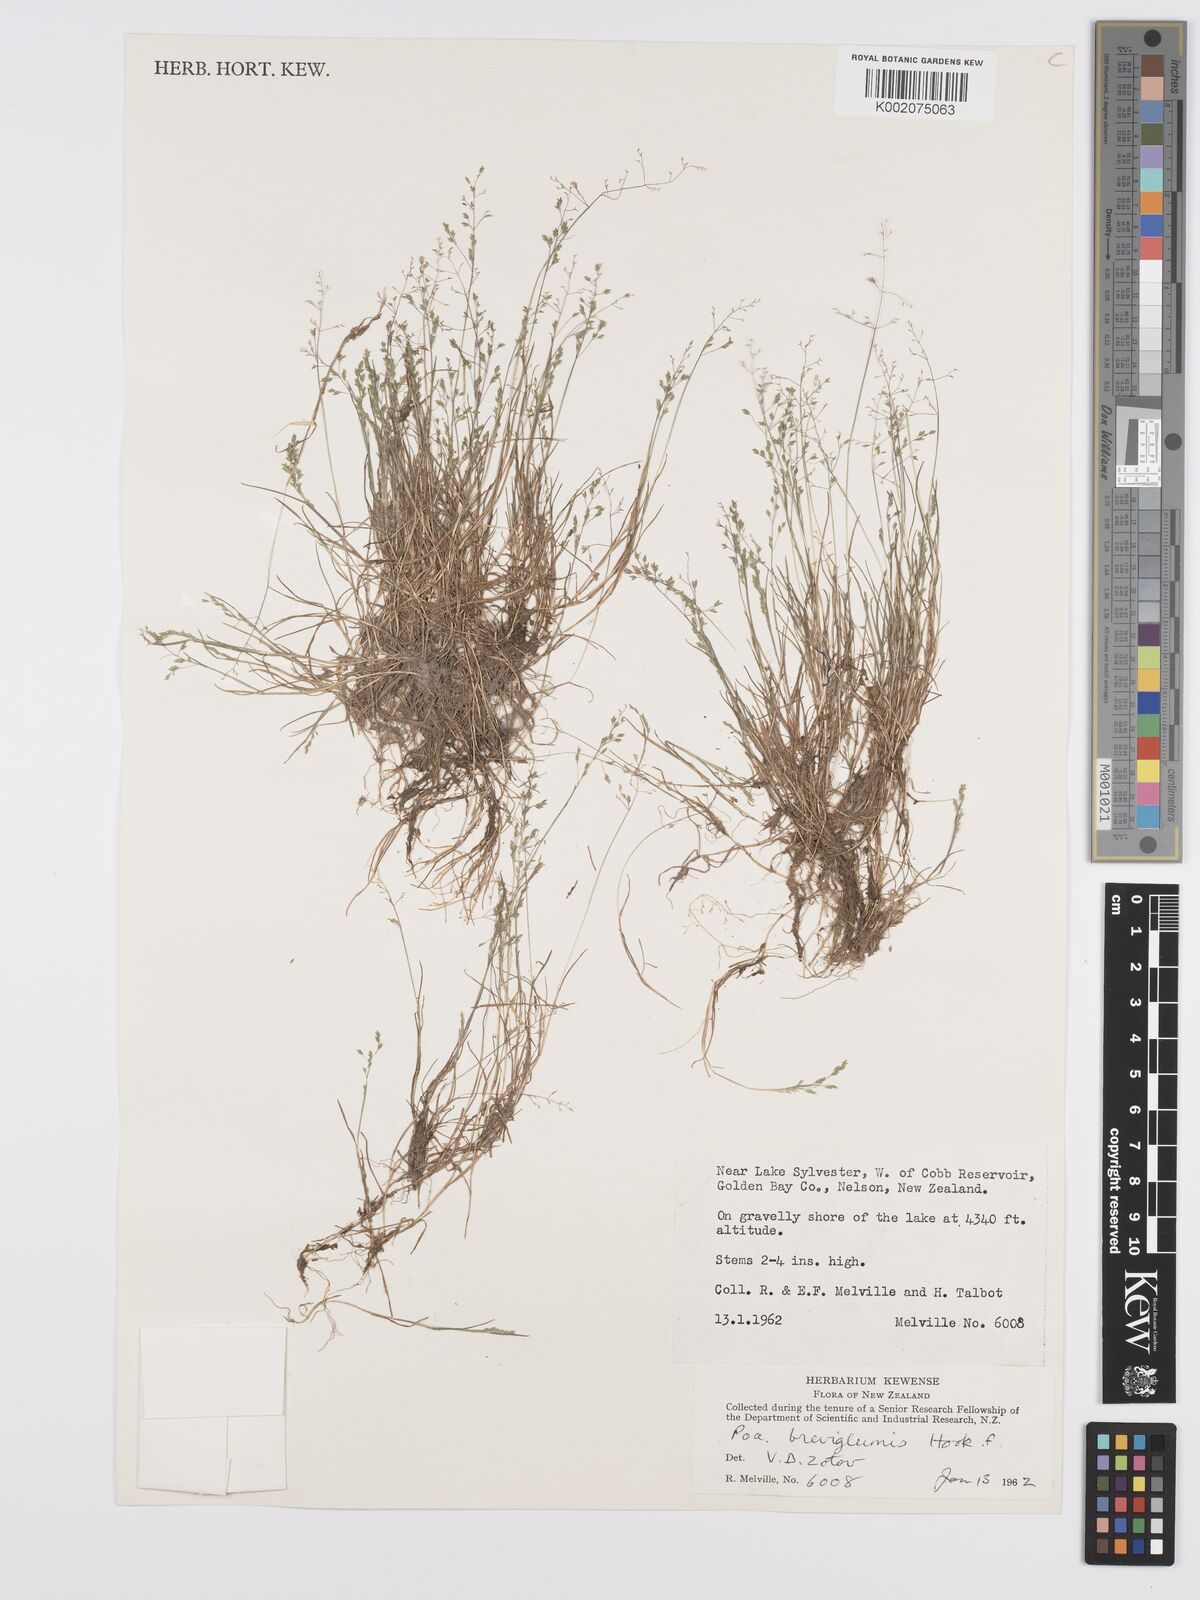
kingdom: Plantae
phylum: Tracheophyta
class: Liliopsida
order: Poales
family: Poaceae
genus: Poa
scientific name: Poa breviglumis
